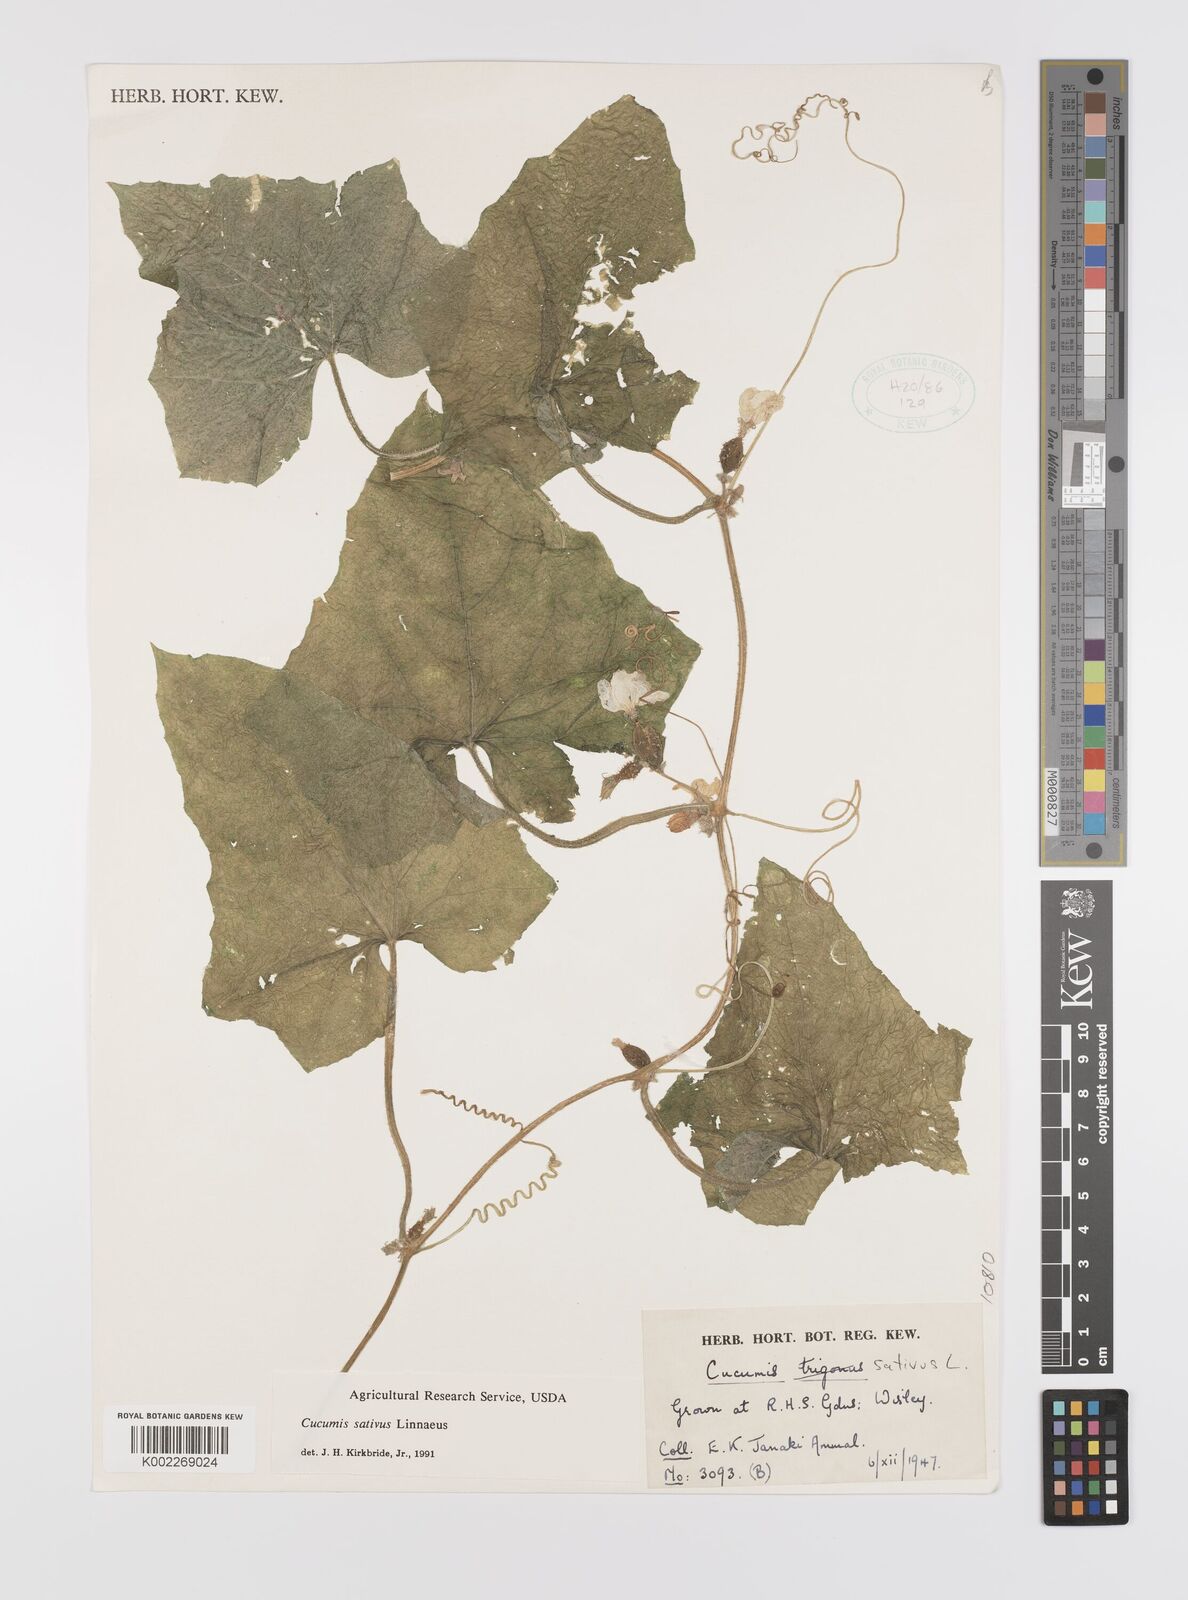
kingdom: Plantae
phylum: Tracheophyta
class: Magnoliopsida
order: Cucurbitales
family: Cucurbitaceae
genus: Cucumis
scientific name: Cucumis sativus
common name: Cucumber
